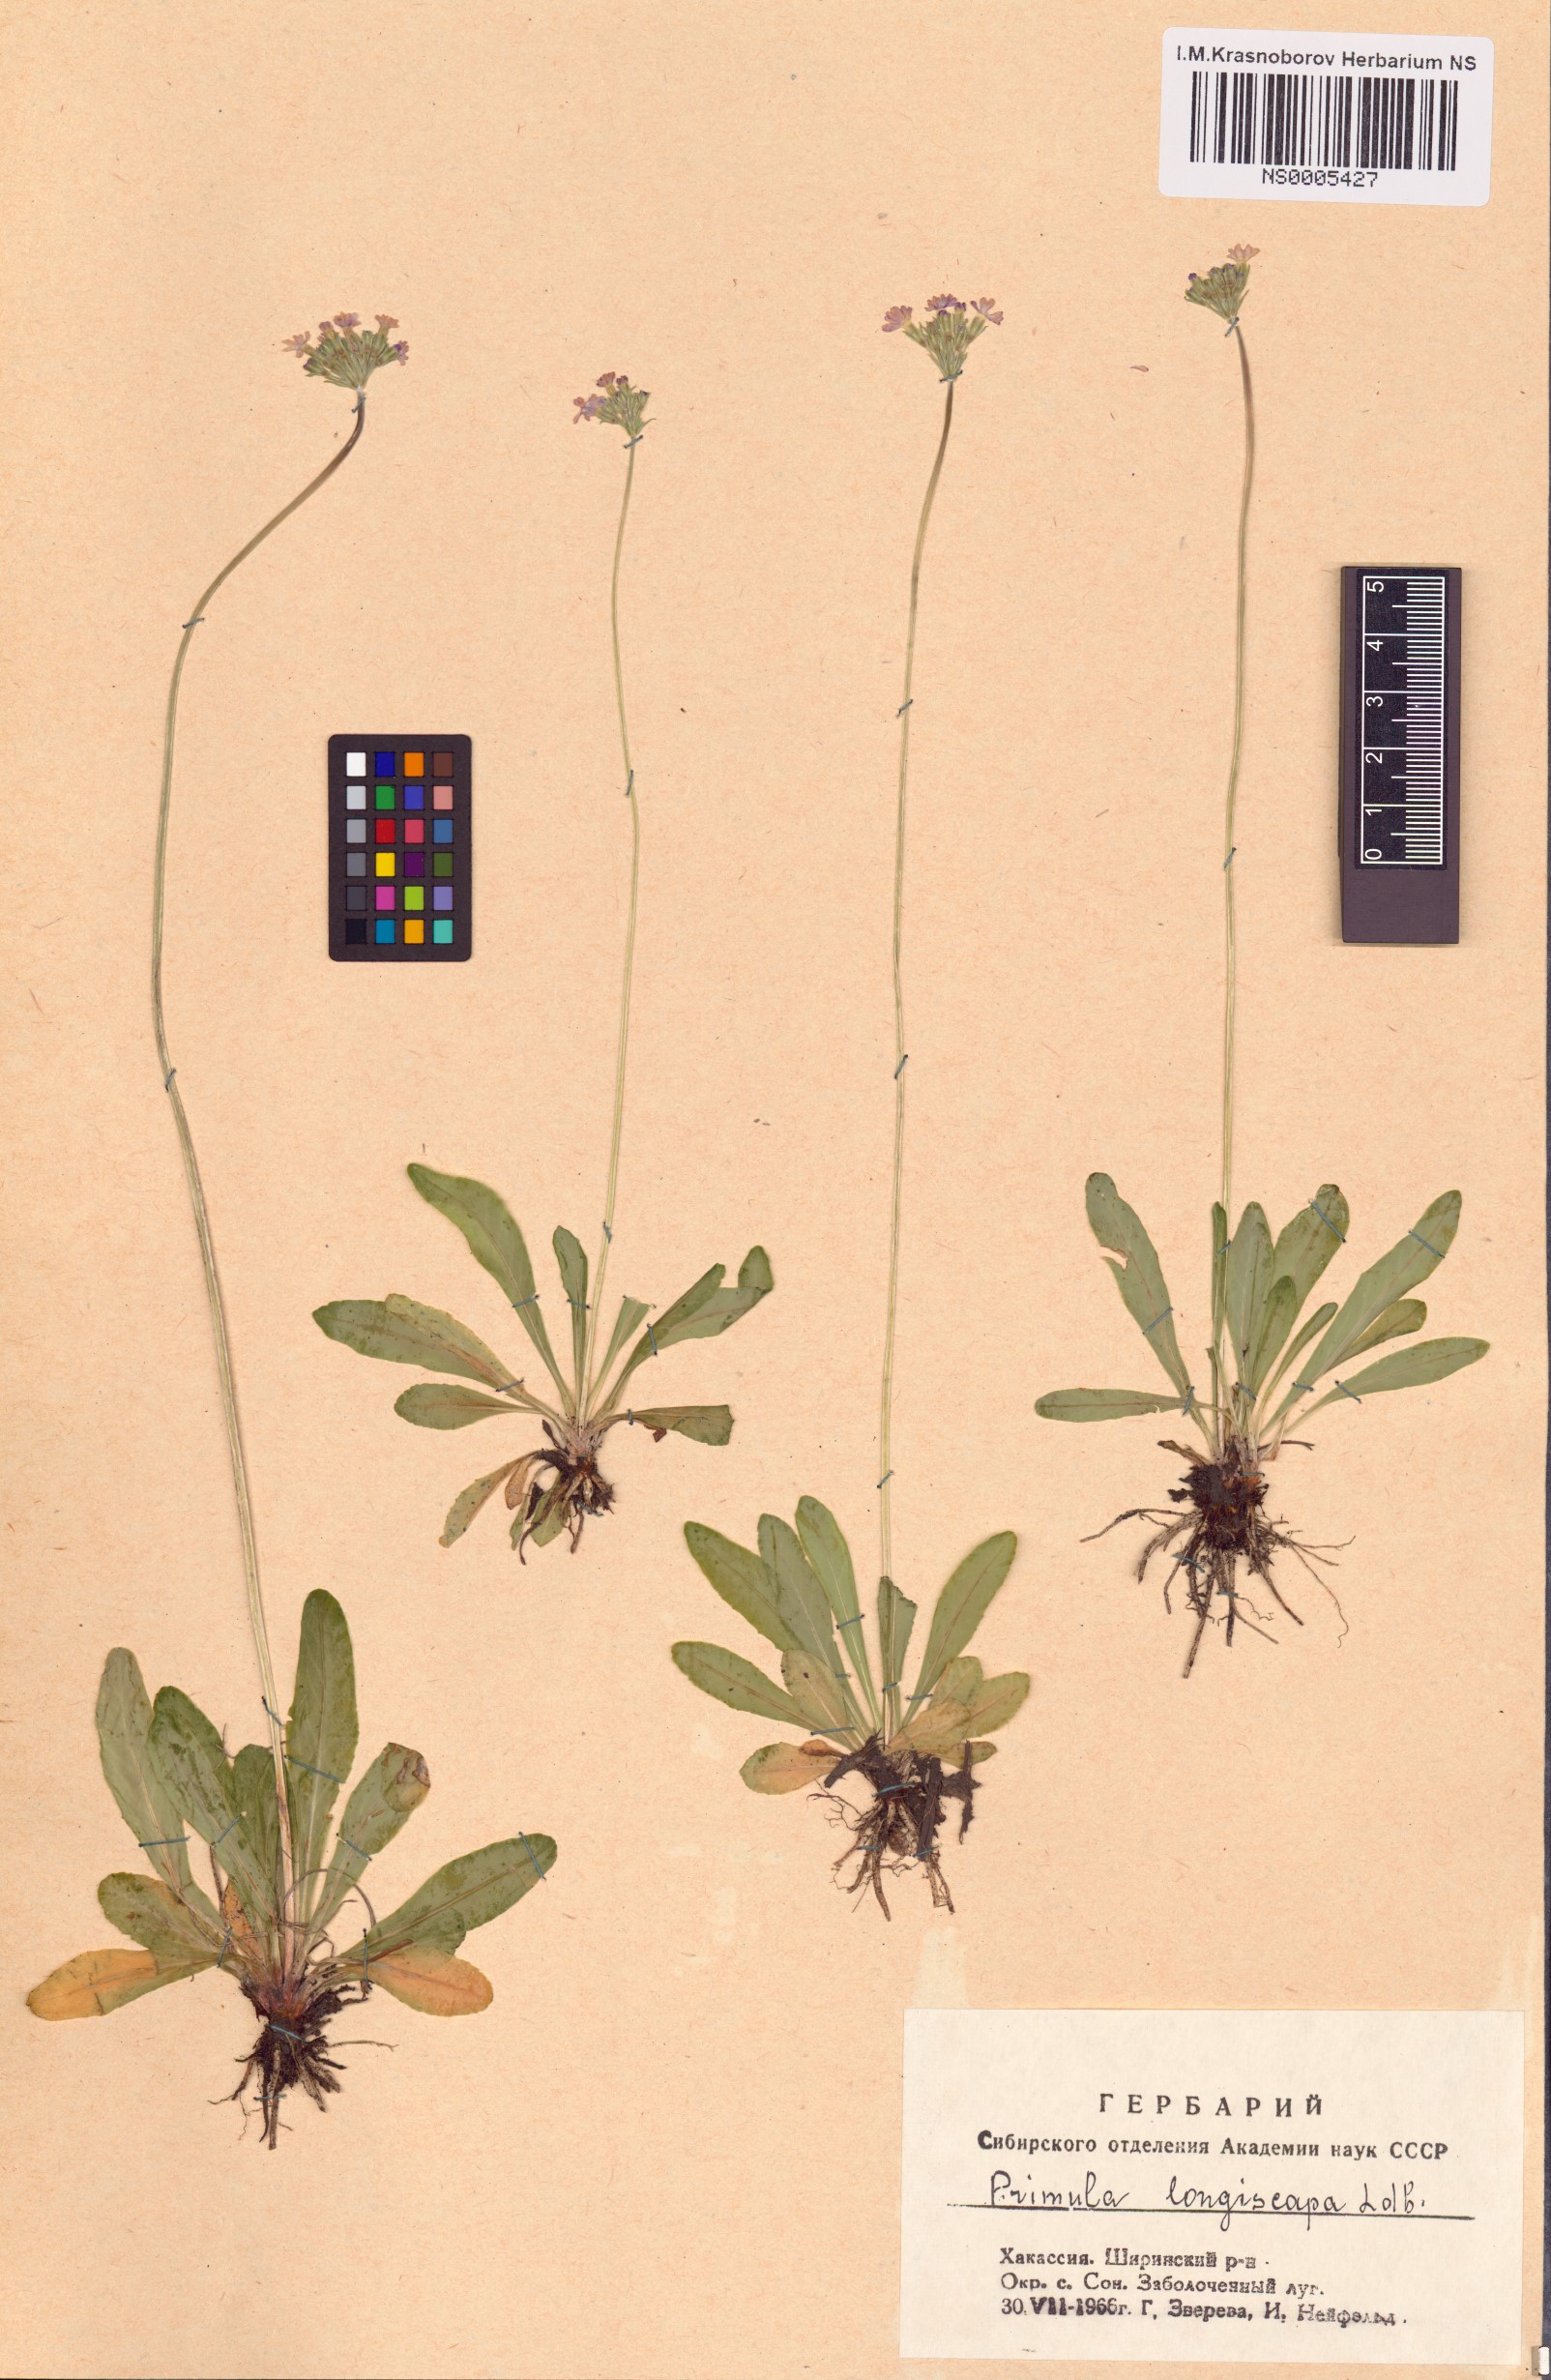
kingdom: Plantae
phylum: Tracheophyta
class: Magnoliopsida
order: Ericales
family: Primulaceae
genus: Primula
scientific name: Primula longiscapa
